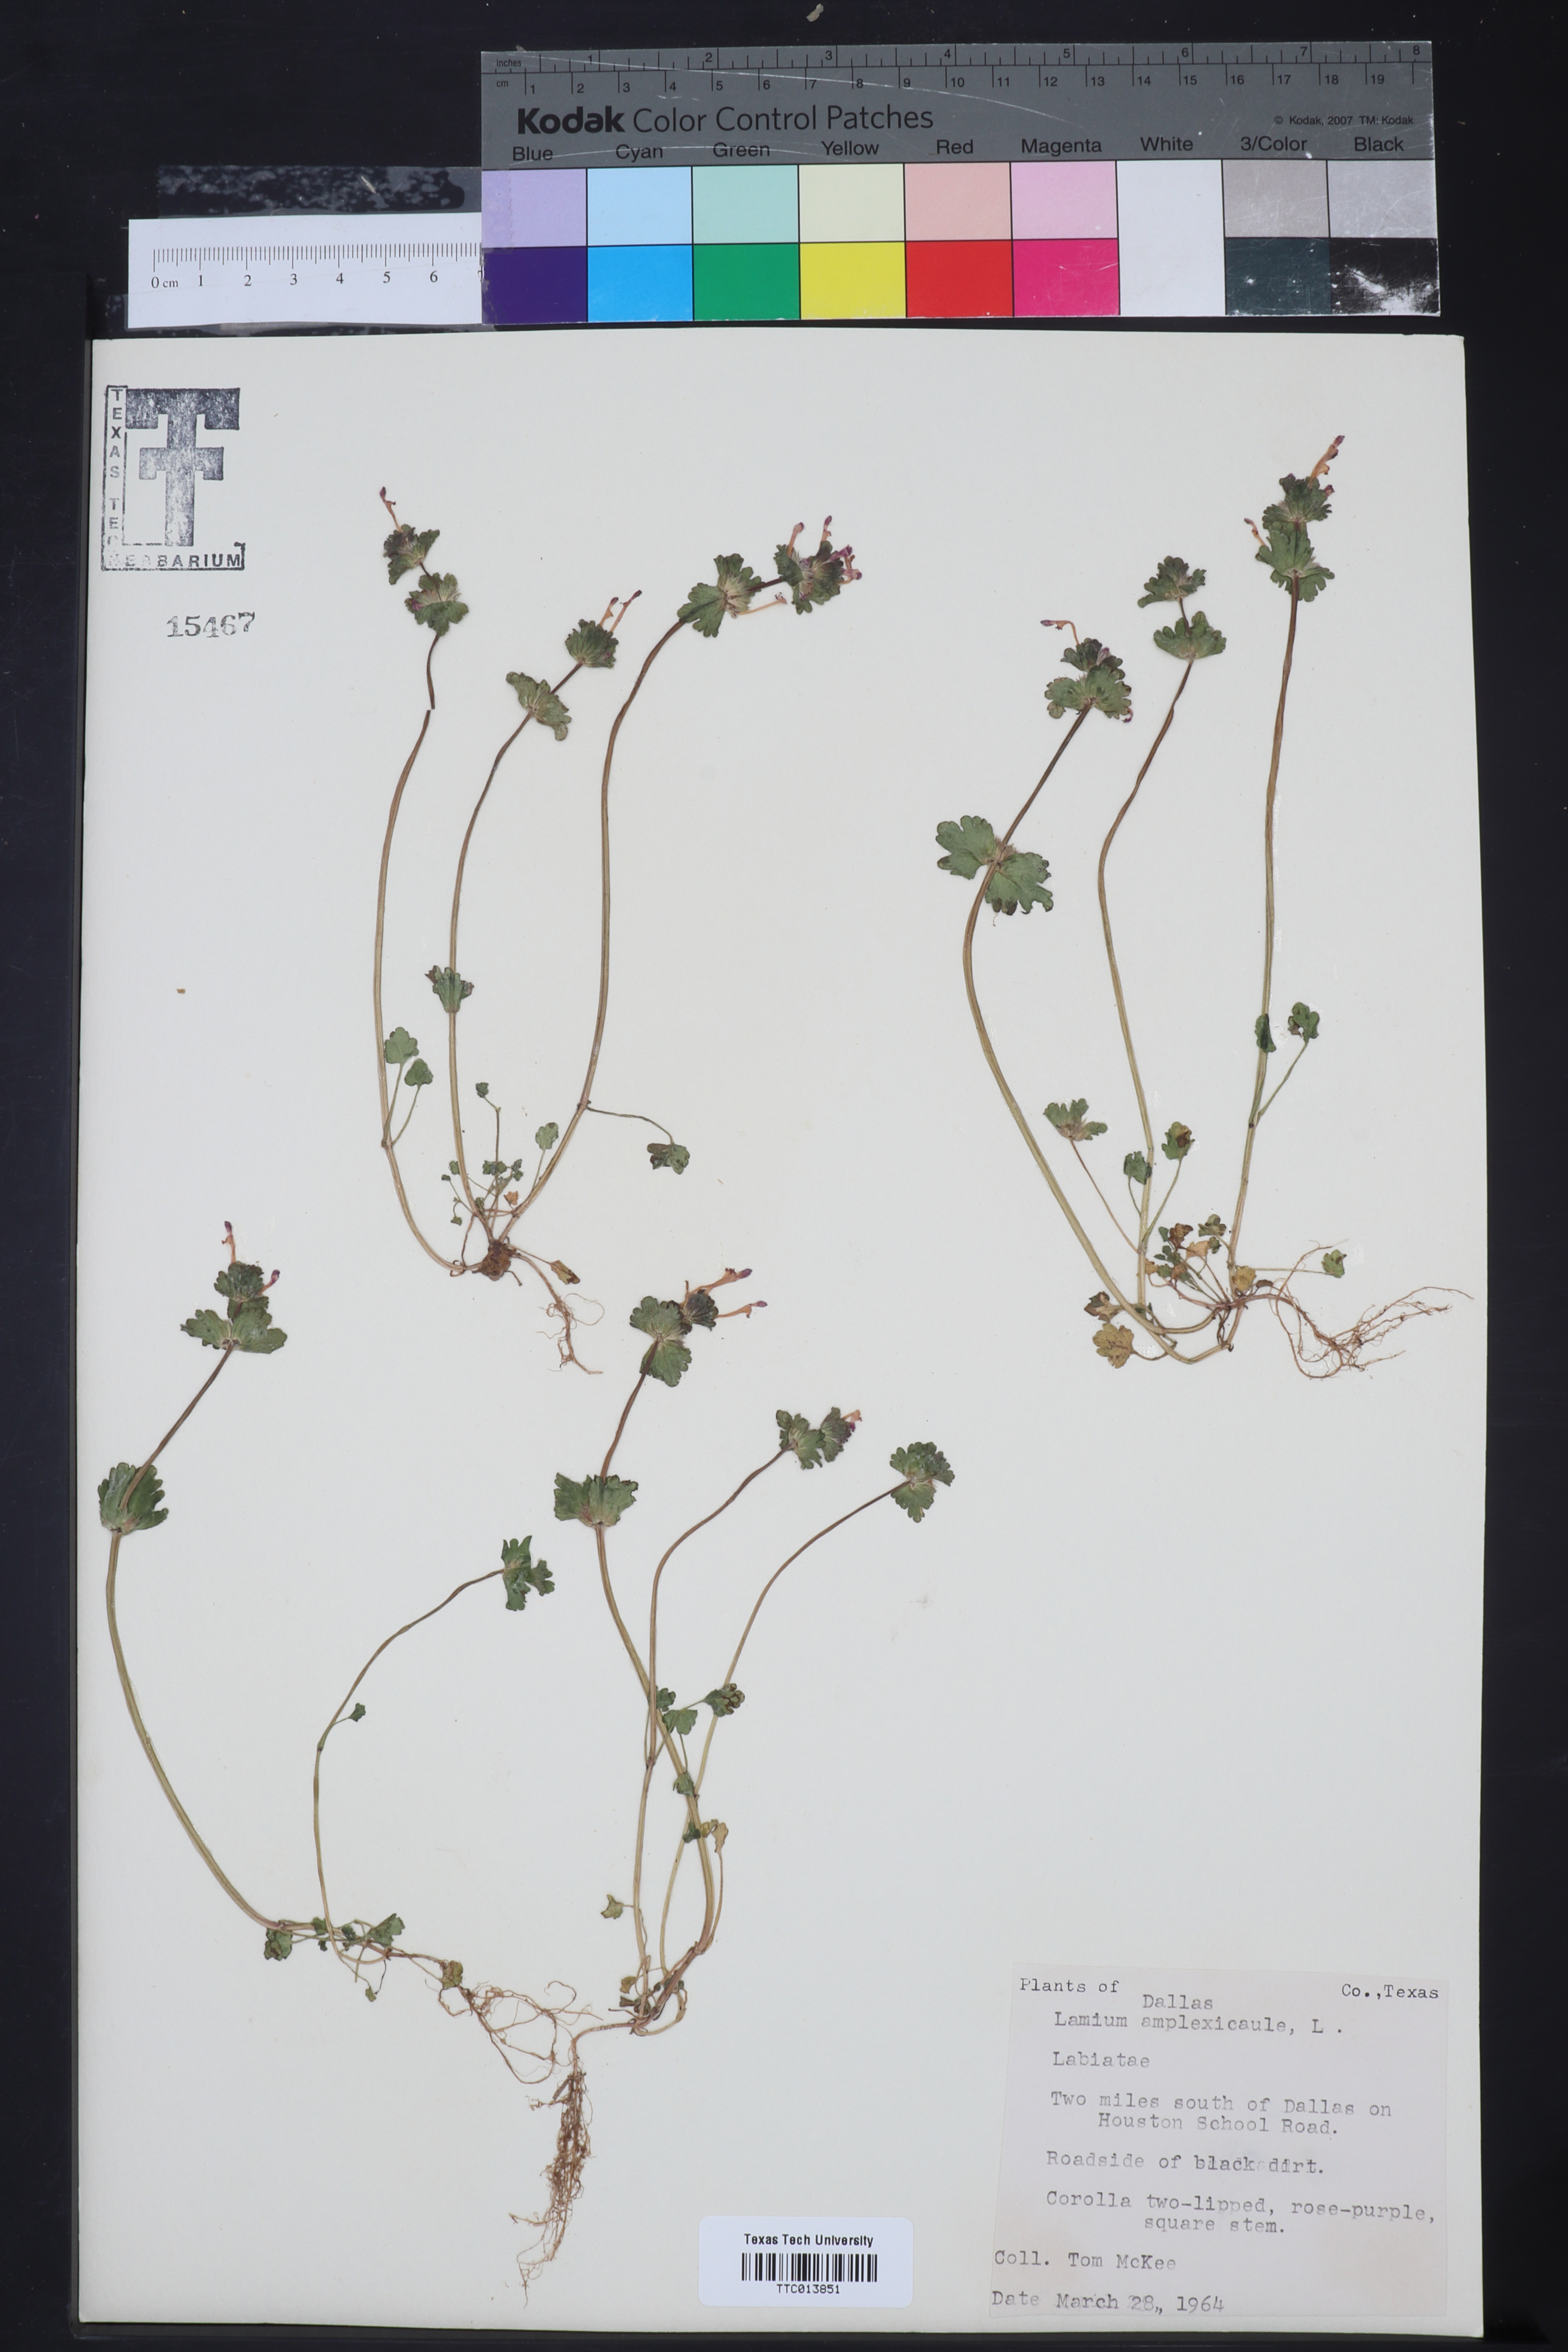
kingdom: Plantae
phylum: Tracheophyta
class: Magnoliopsida
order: Lamiales
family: Lamiaceae
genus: Lamium
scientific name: Lamium amplexicaule
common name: Henbit dead-nettle
